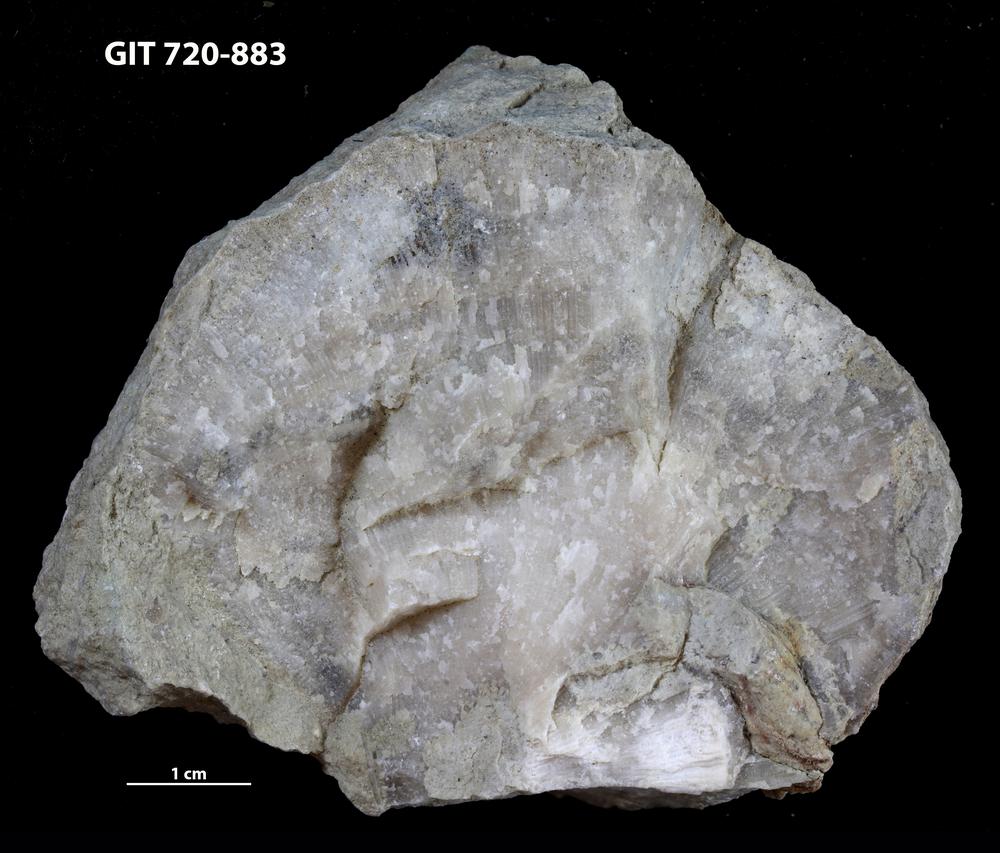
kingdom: Animalia
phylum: Bryozoa
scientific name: Bryozoa
